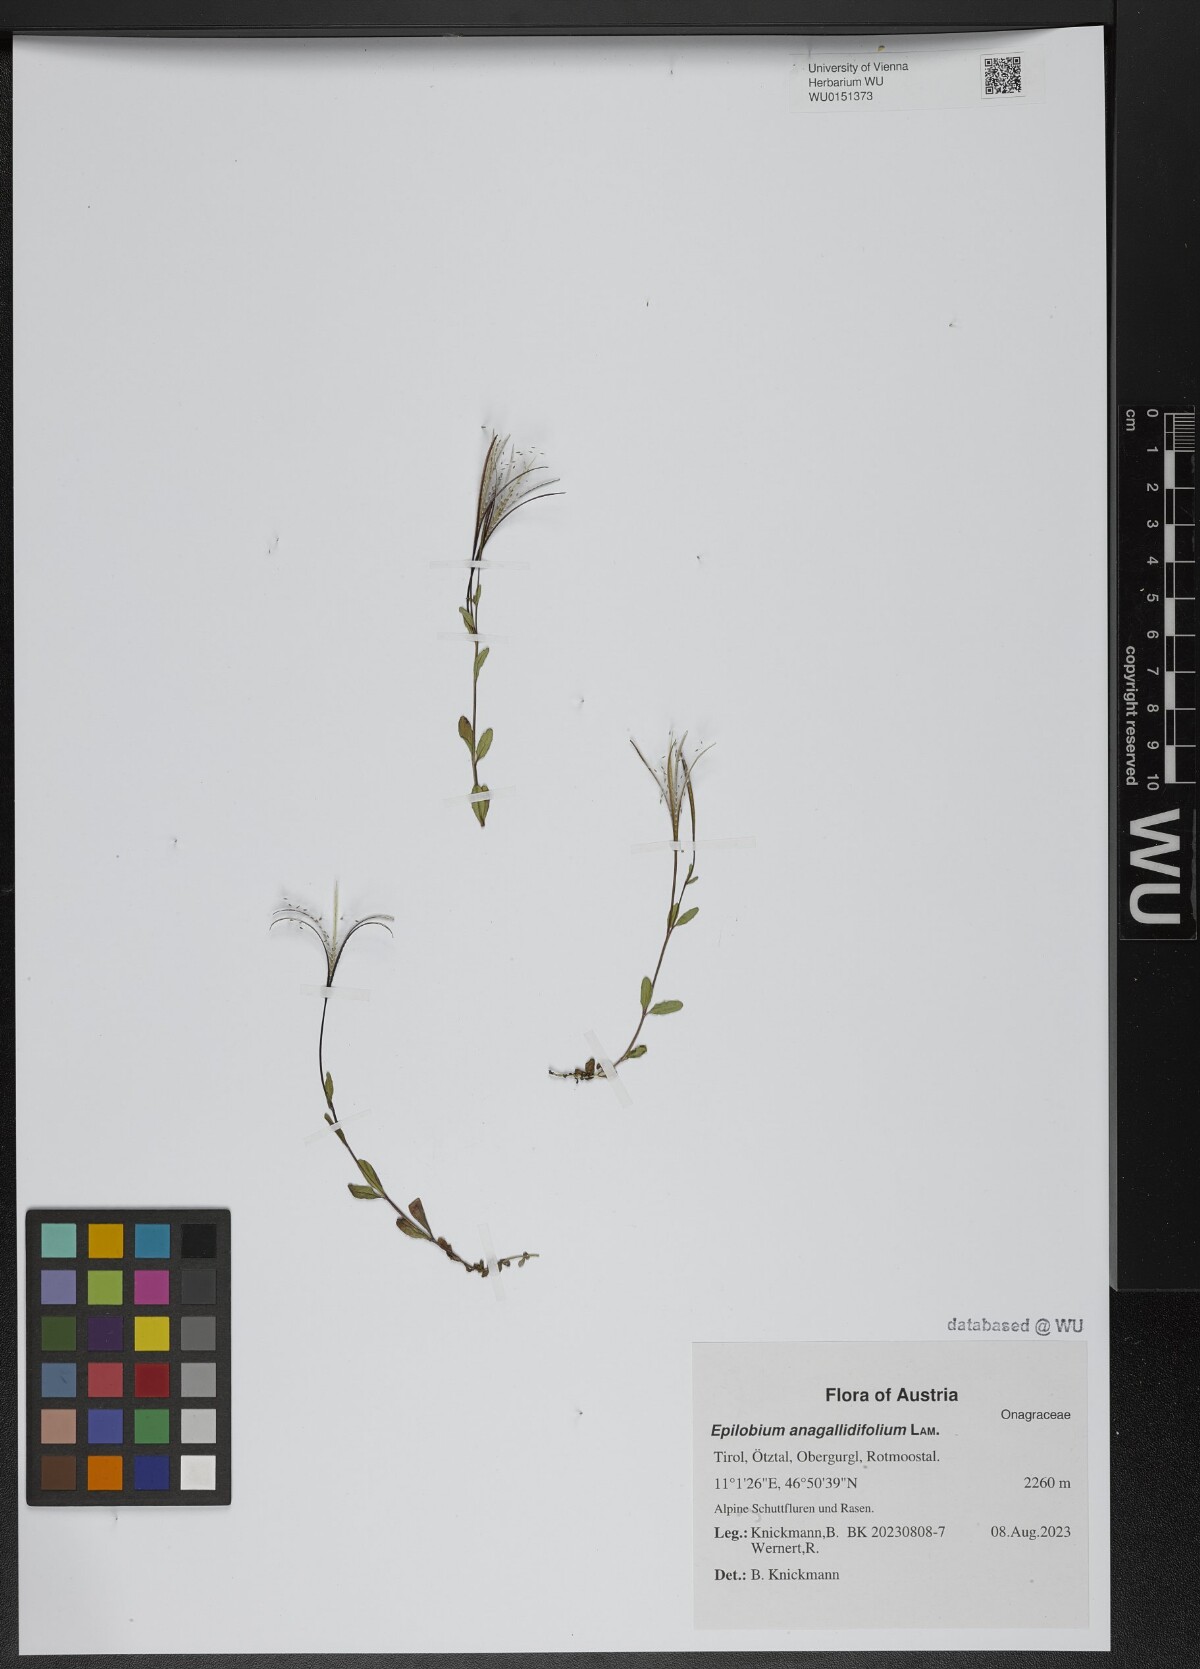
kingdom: Plantae
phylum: Tracheophyta
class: Magnoliopsida
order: Myrtales
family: Onagraceae
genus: Epilobium
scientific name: Epilobium anagallidifolium
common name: Alpine willowherb
